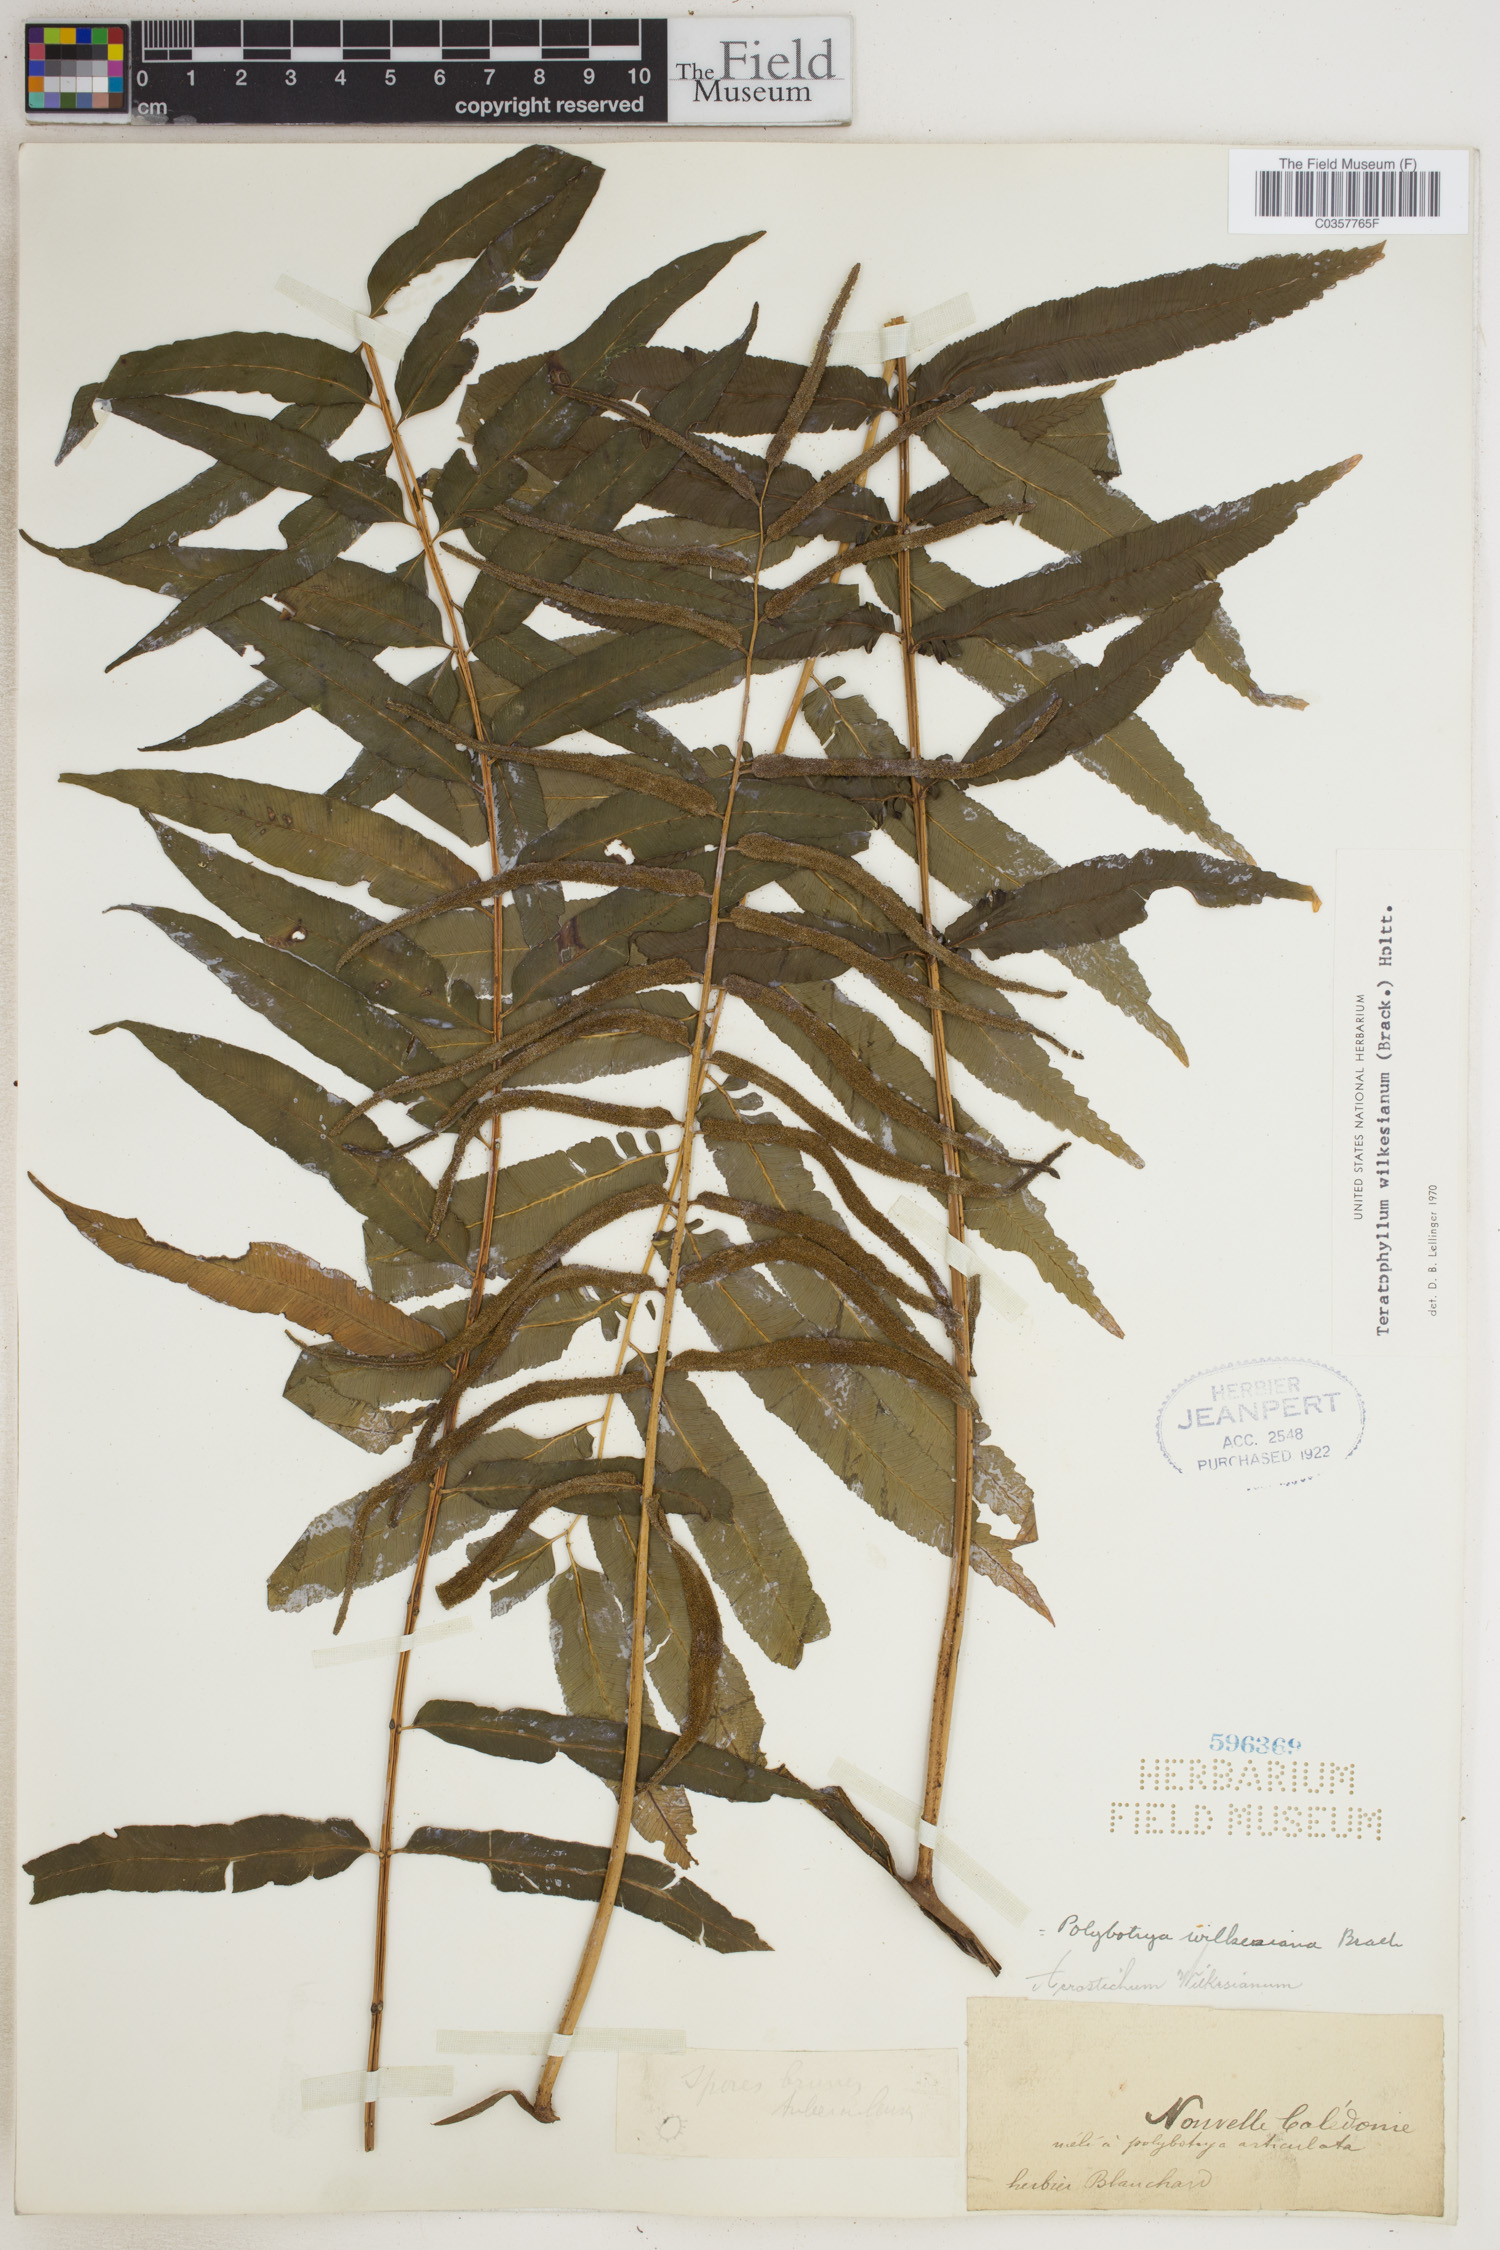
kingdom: Plantae
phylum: Tracheophyta
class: Polypodiopsida
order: Polypodiales
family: Dryopteridaceae
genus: Arthrobotrya
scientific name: Arthrobotrya wilkesiana
